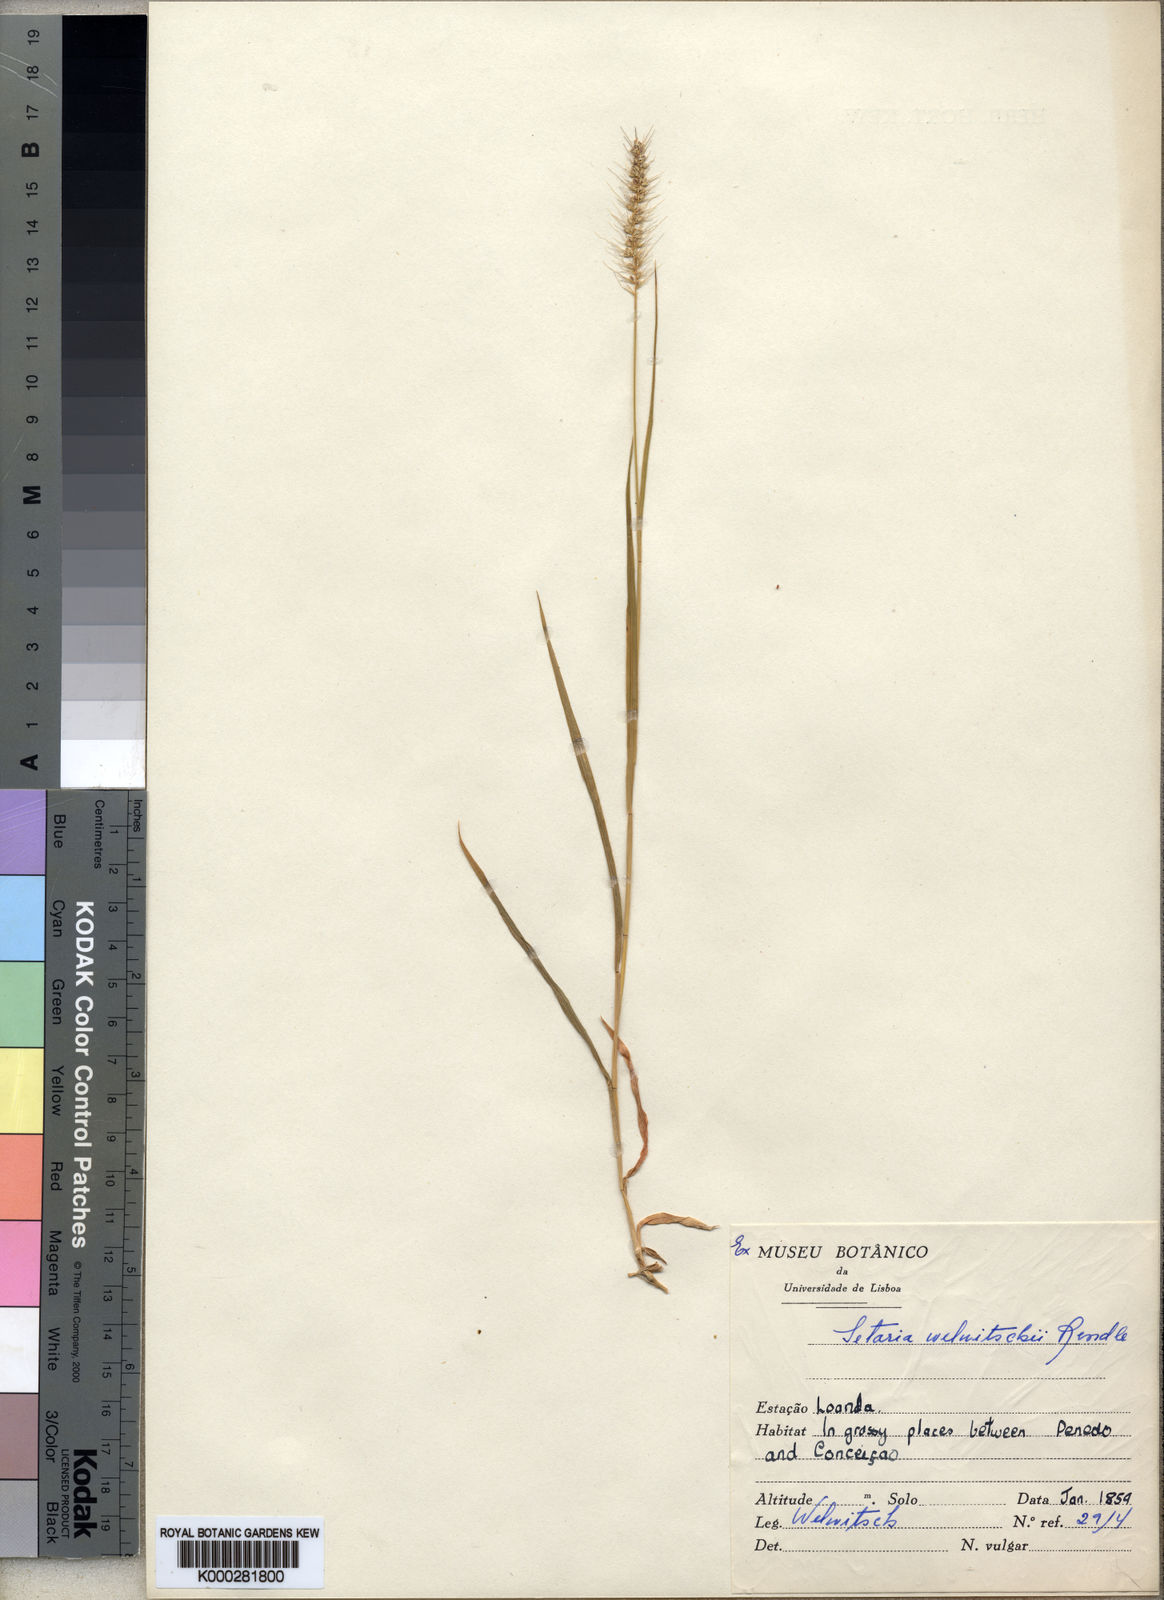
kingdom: Plantae
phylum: Tracheophyta
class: Liliopsida
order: Poales
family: Poaceae
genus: Setaria
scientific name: Setaria welwitschii
